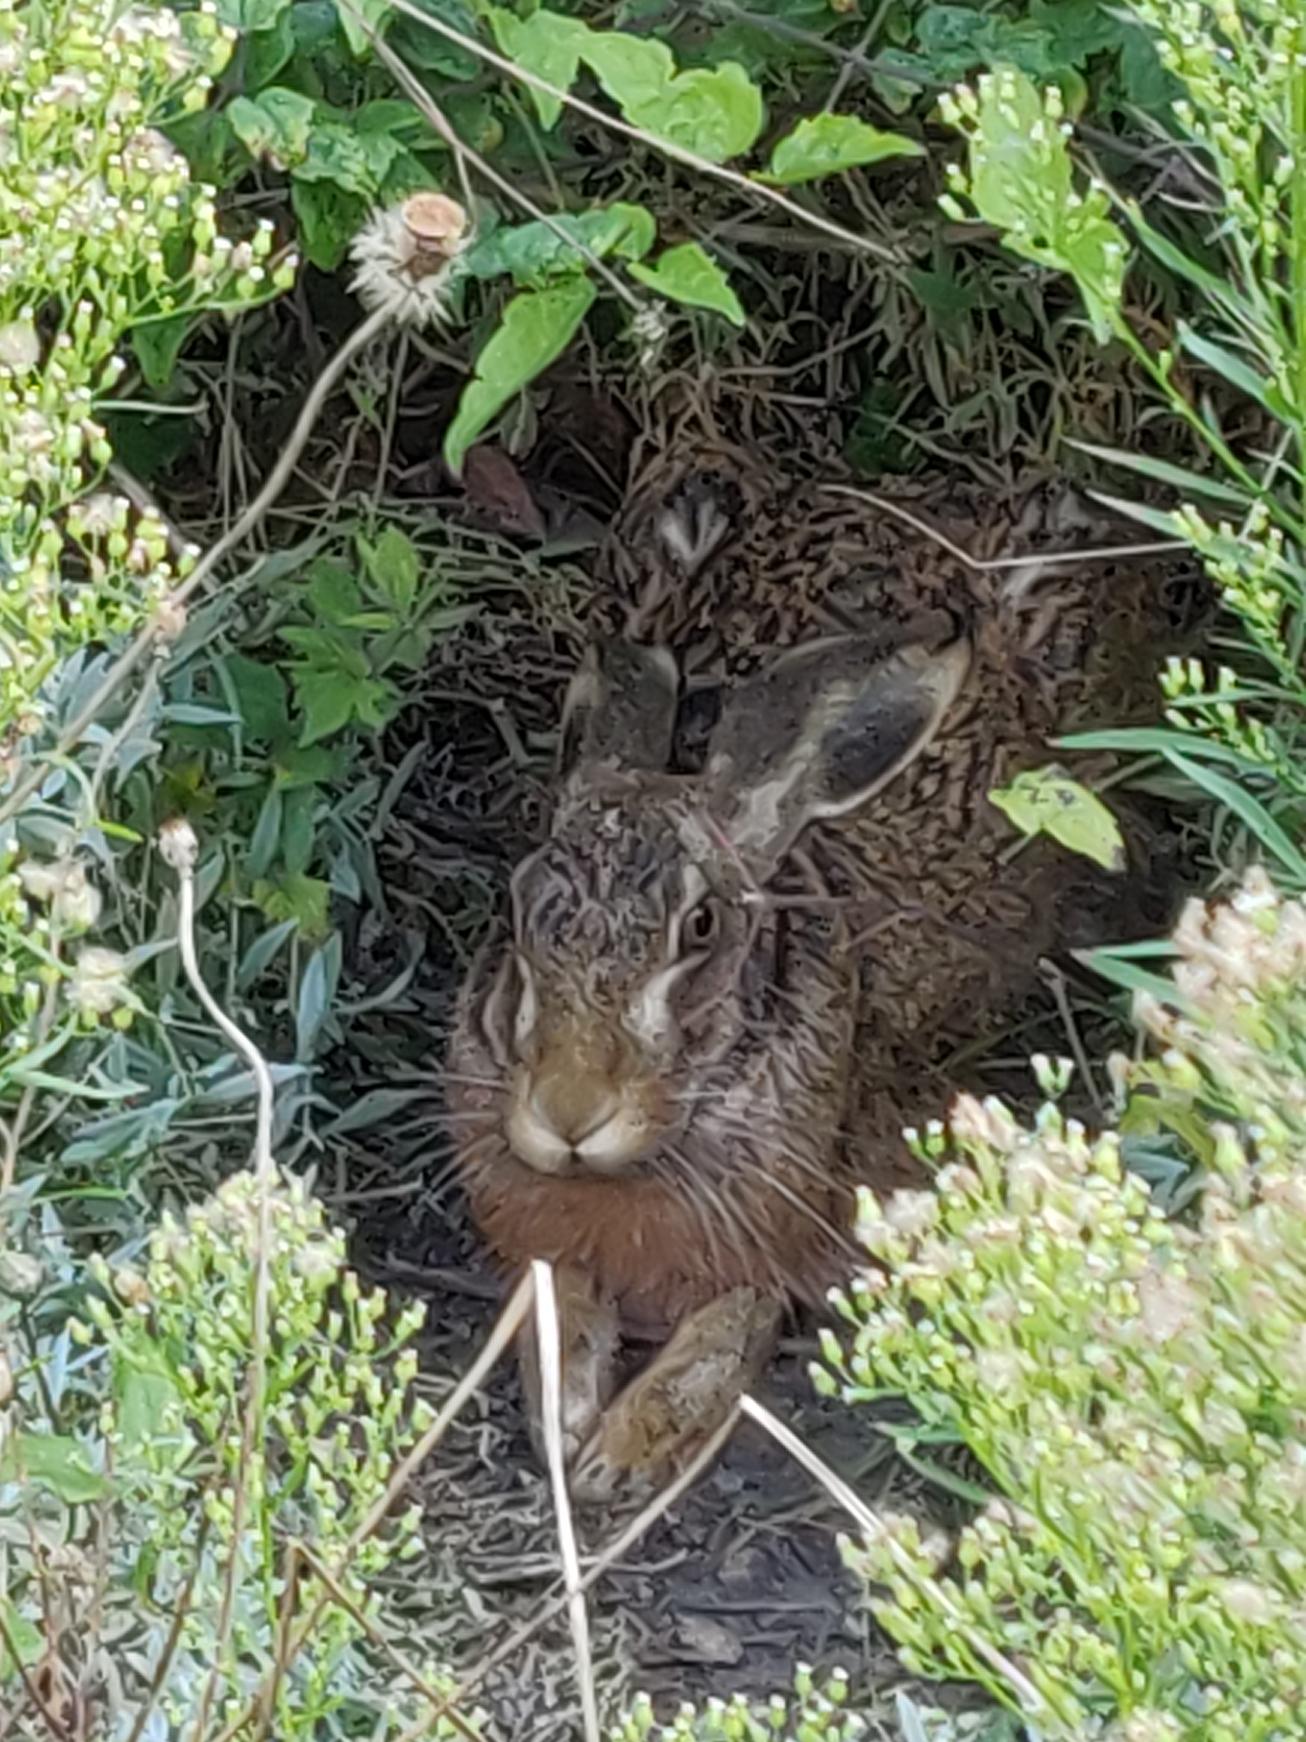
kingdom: Animalia
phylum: Chordata
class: Mammalia
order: Lagomorpha
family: Leporidae
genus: Lepus
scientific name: Lepus europaeus
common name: Hare
